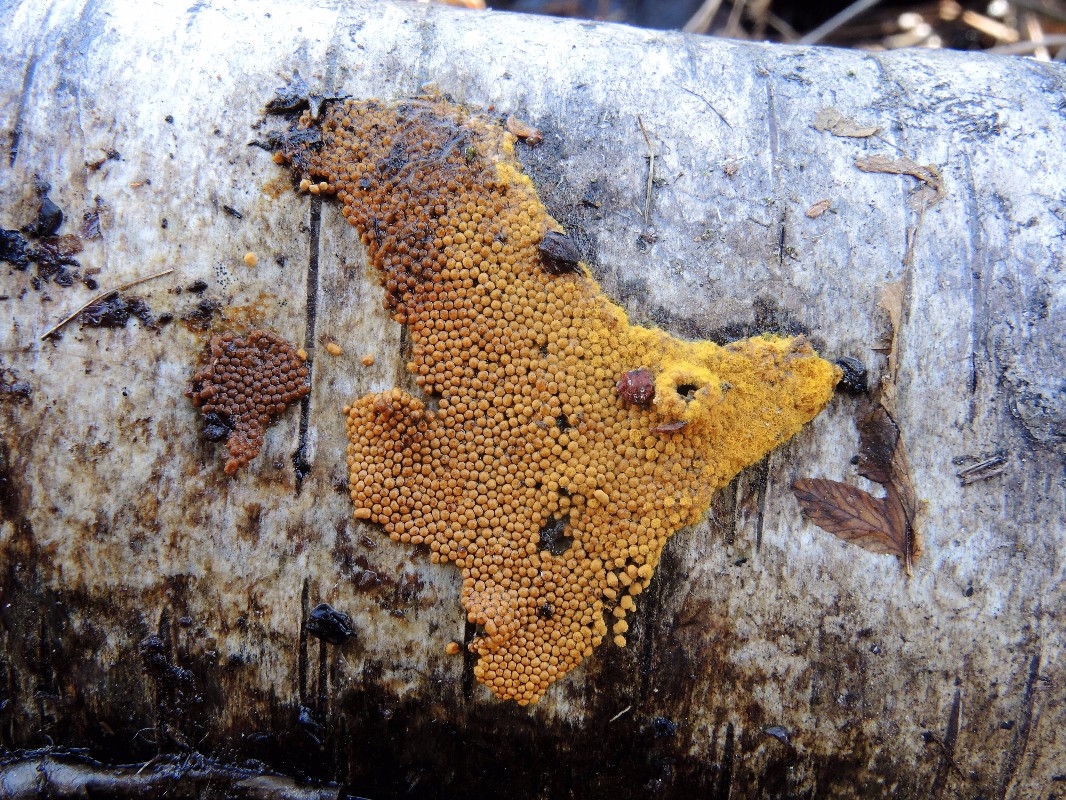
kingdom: Protozoa
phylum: Mycetozoa
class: Myxomycetes
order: Trichiales
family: Trichiaceae
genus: Oligonema
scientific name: Oligonema persimile
